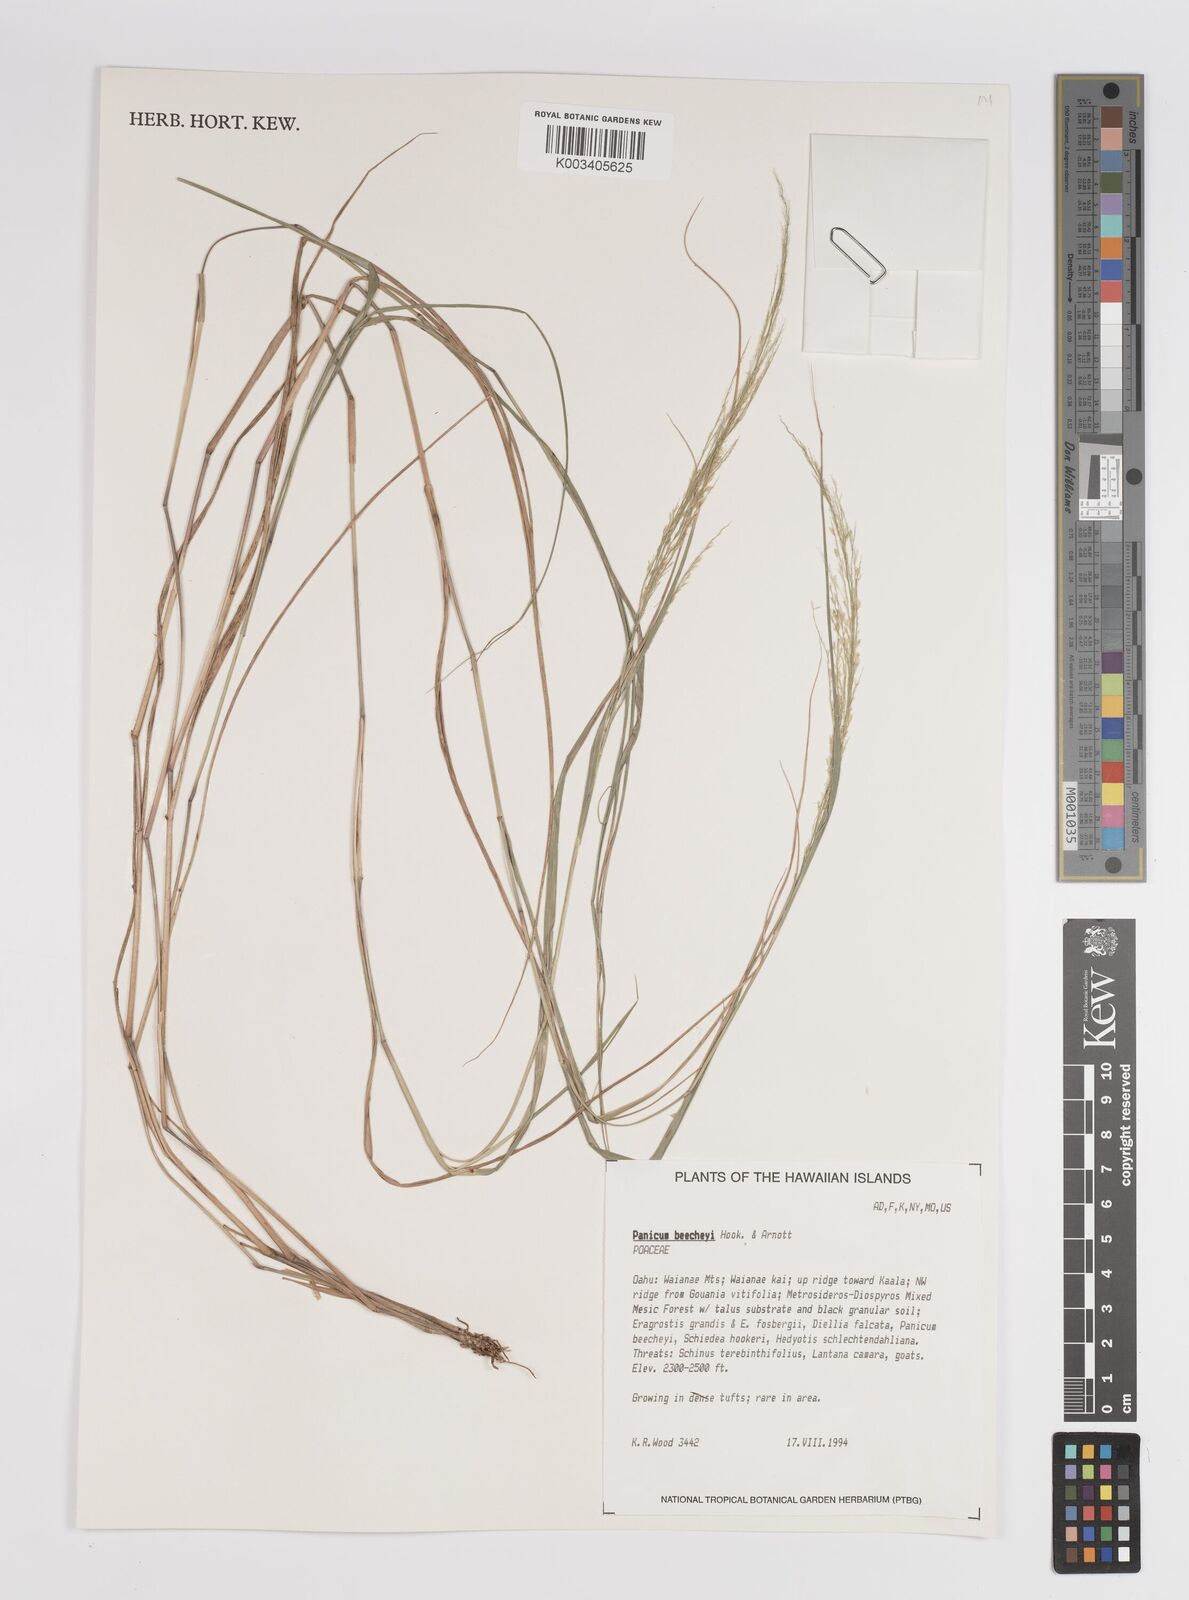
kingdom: Plantae
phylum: Tracheophyta
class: Liliopsida
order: Poales
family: Poaceae
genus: Panicum
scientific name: Panicum beecheyi
